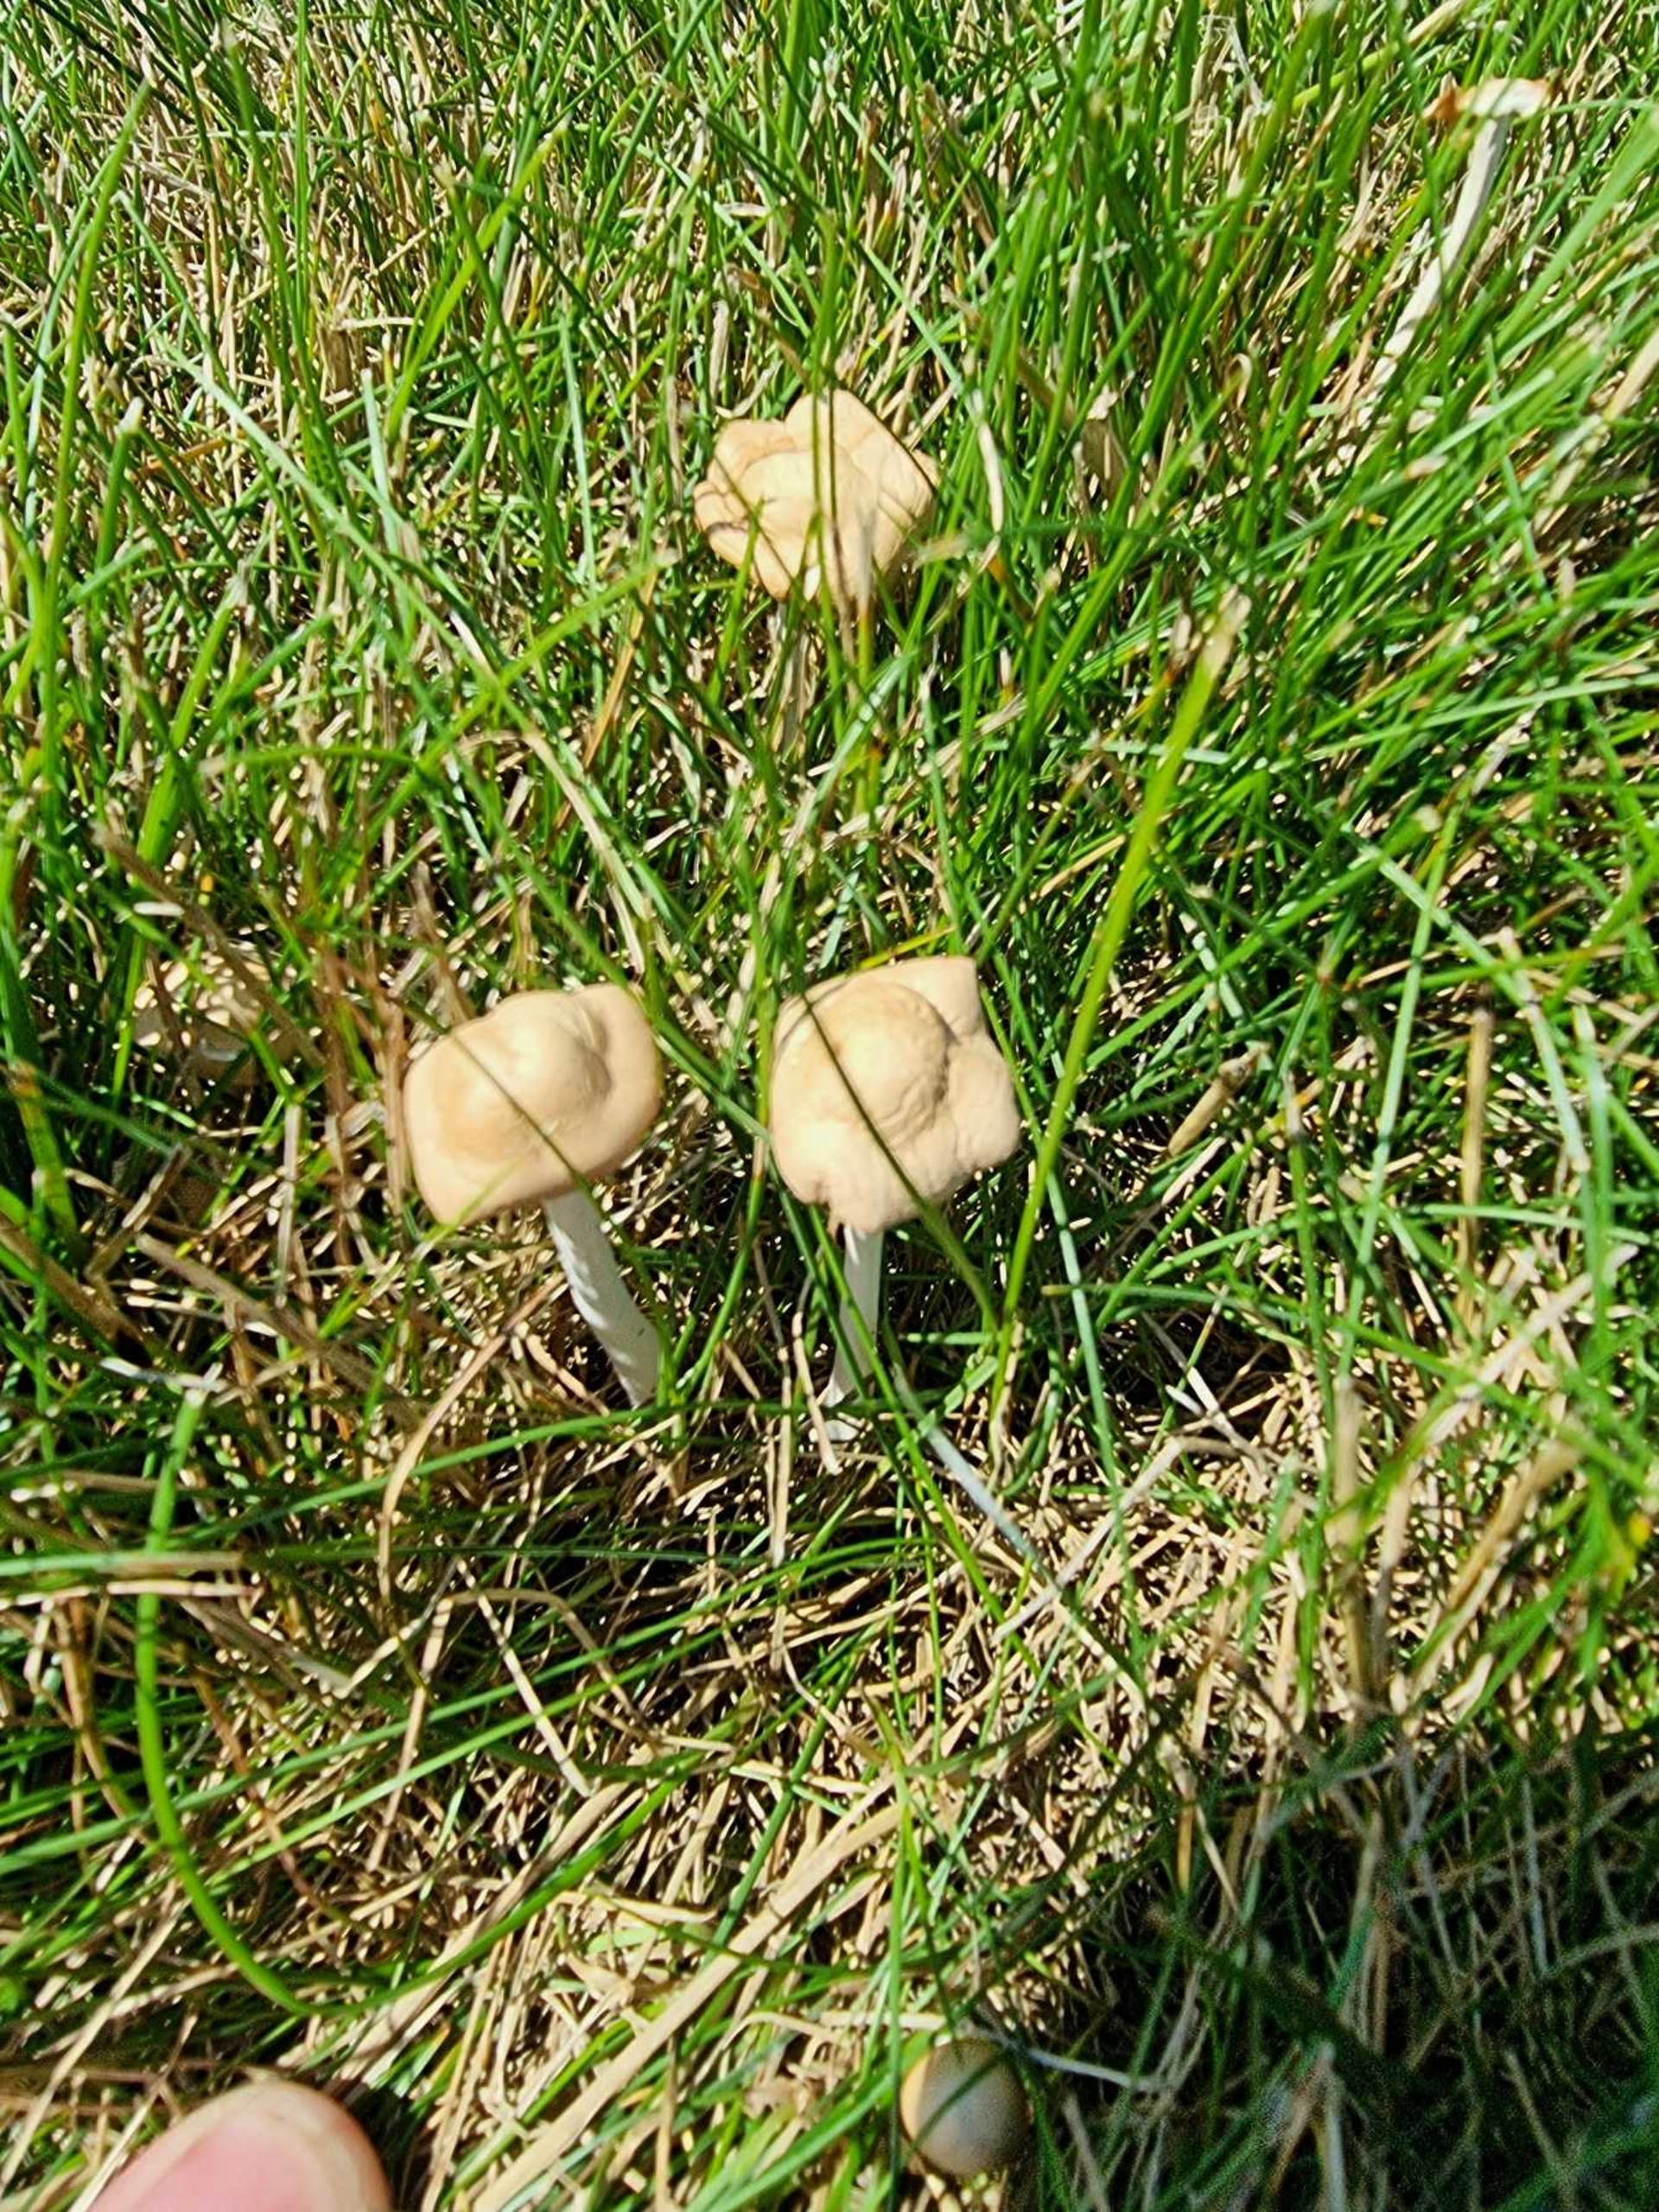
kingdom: Fungi
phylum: Basidiomycota
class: Agaricomycetes
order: Agaricales
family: Strophariaceae
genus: Agrocybe
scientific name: Agrocybe
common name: Agerhat
